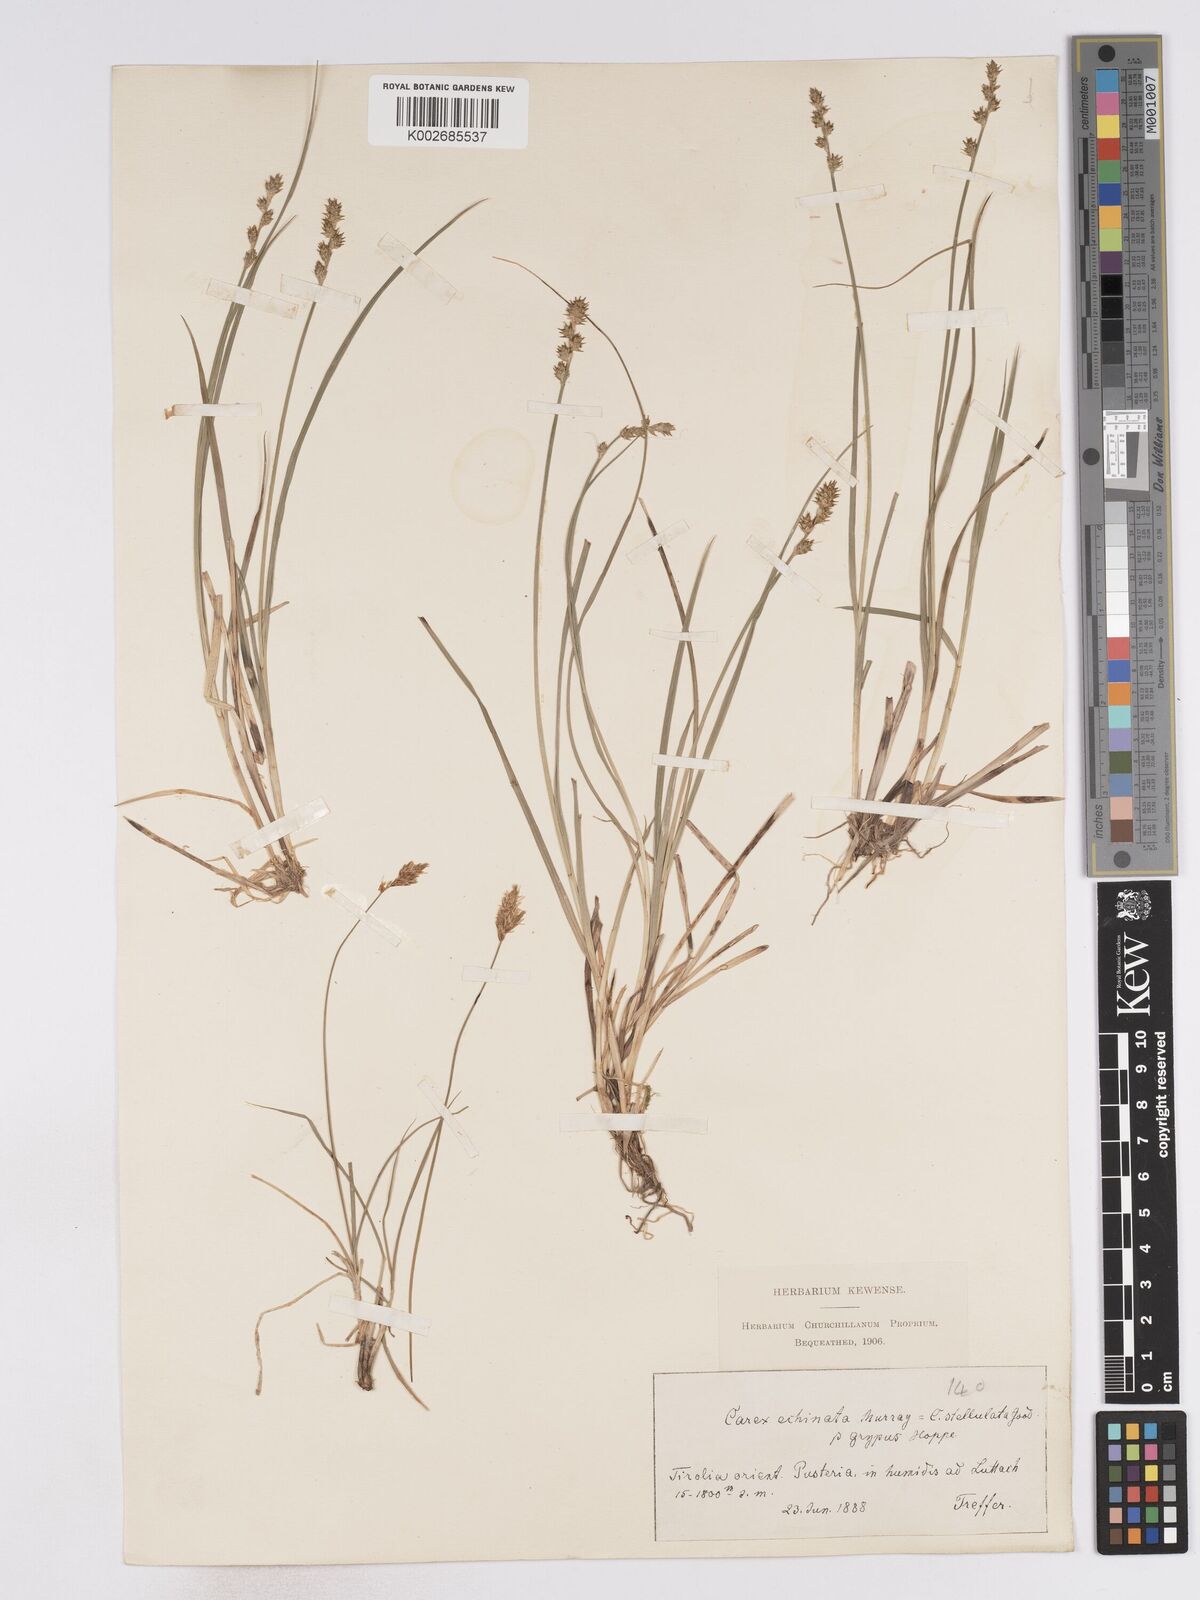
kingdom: Plantae
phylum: Tracheophyta
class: Liliopsida
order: Poales
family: Cyperaceae
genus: Carex
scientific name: Carex echinata
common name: Star sedge
